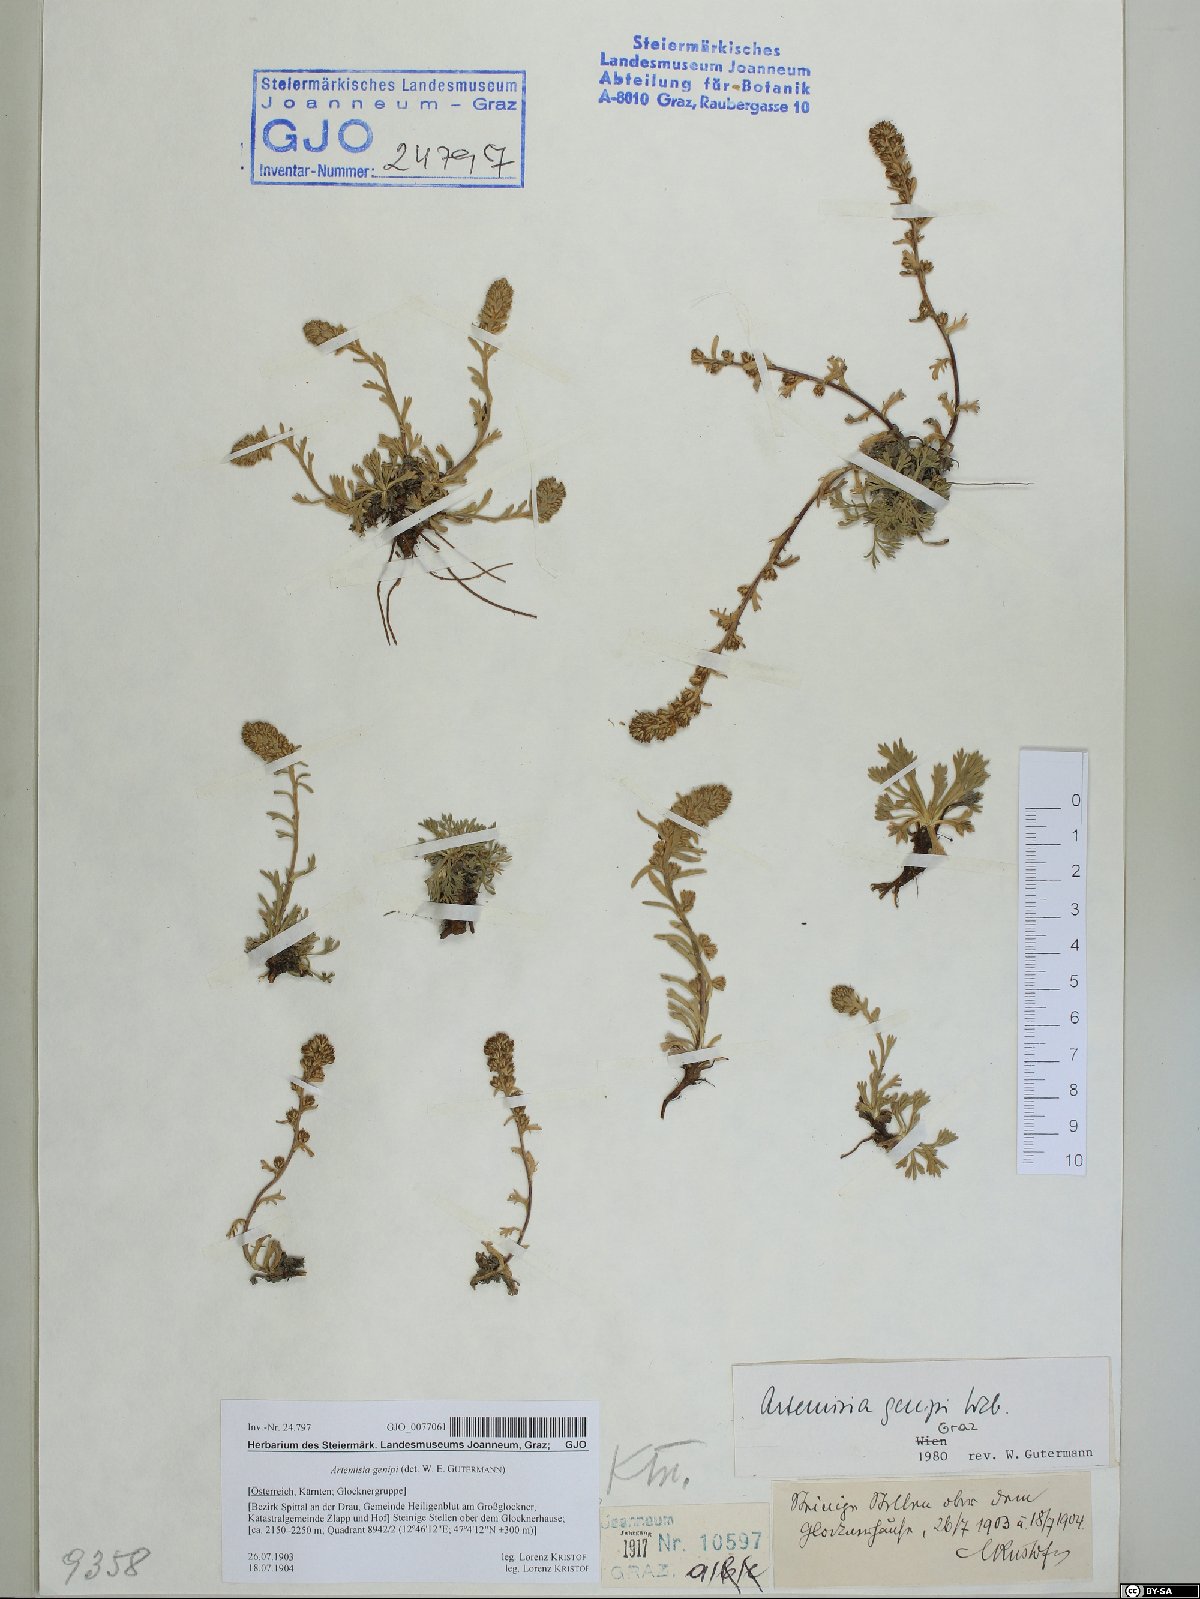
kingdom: Plantae
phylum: Tracheophyta
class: Magnoliopsida
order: Asterales
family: Asteraceae
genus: Artemisia
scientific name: Artemisia genipi
